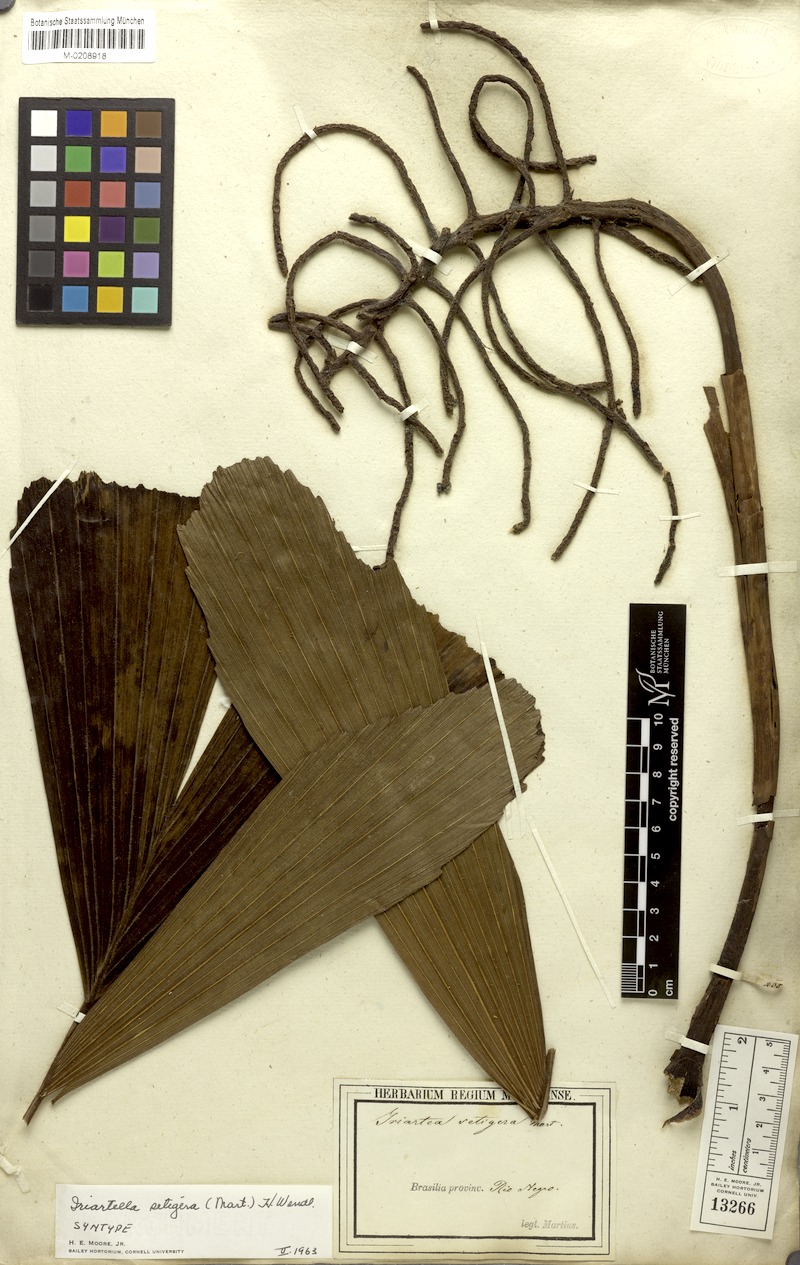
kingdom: Plantae
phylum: Tracheophyta
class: Liliopsida
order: Arecales
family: Arecaceae
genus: Iriartella
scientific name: Iriartella setigera
